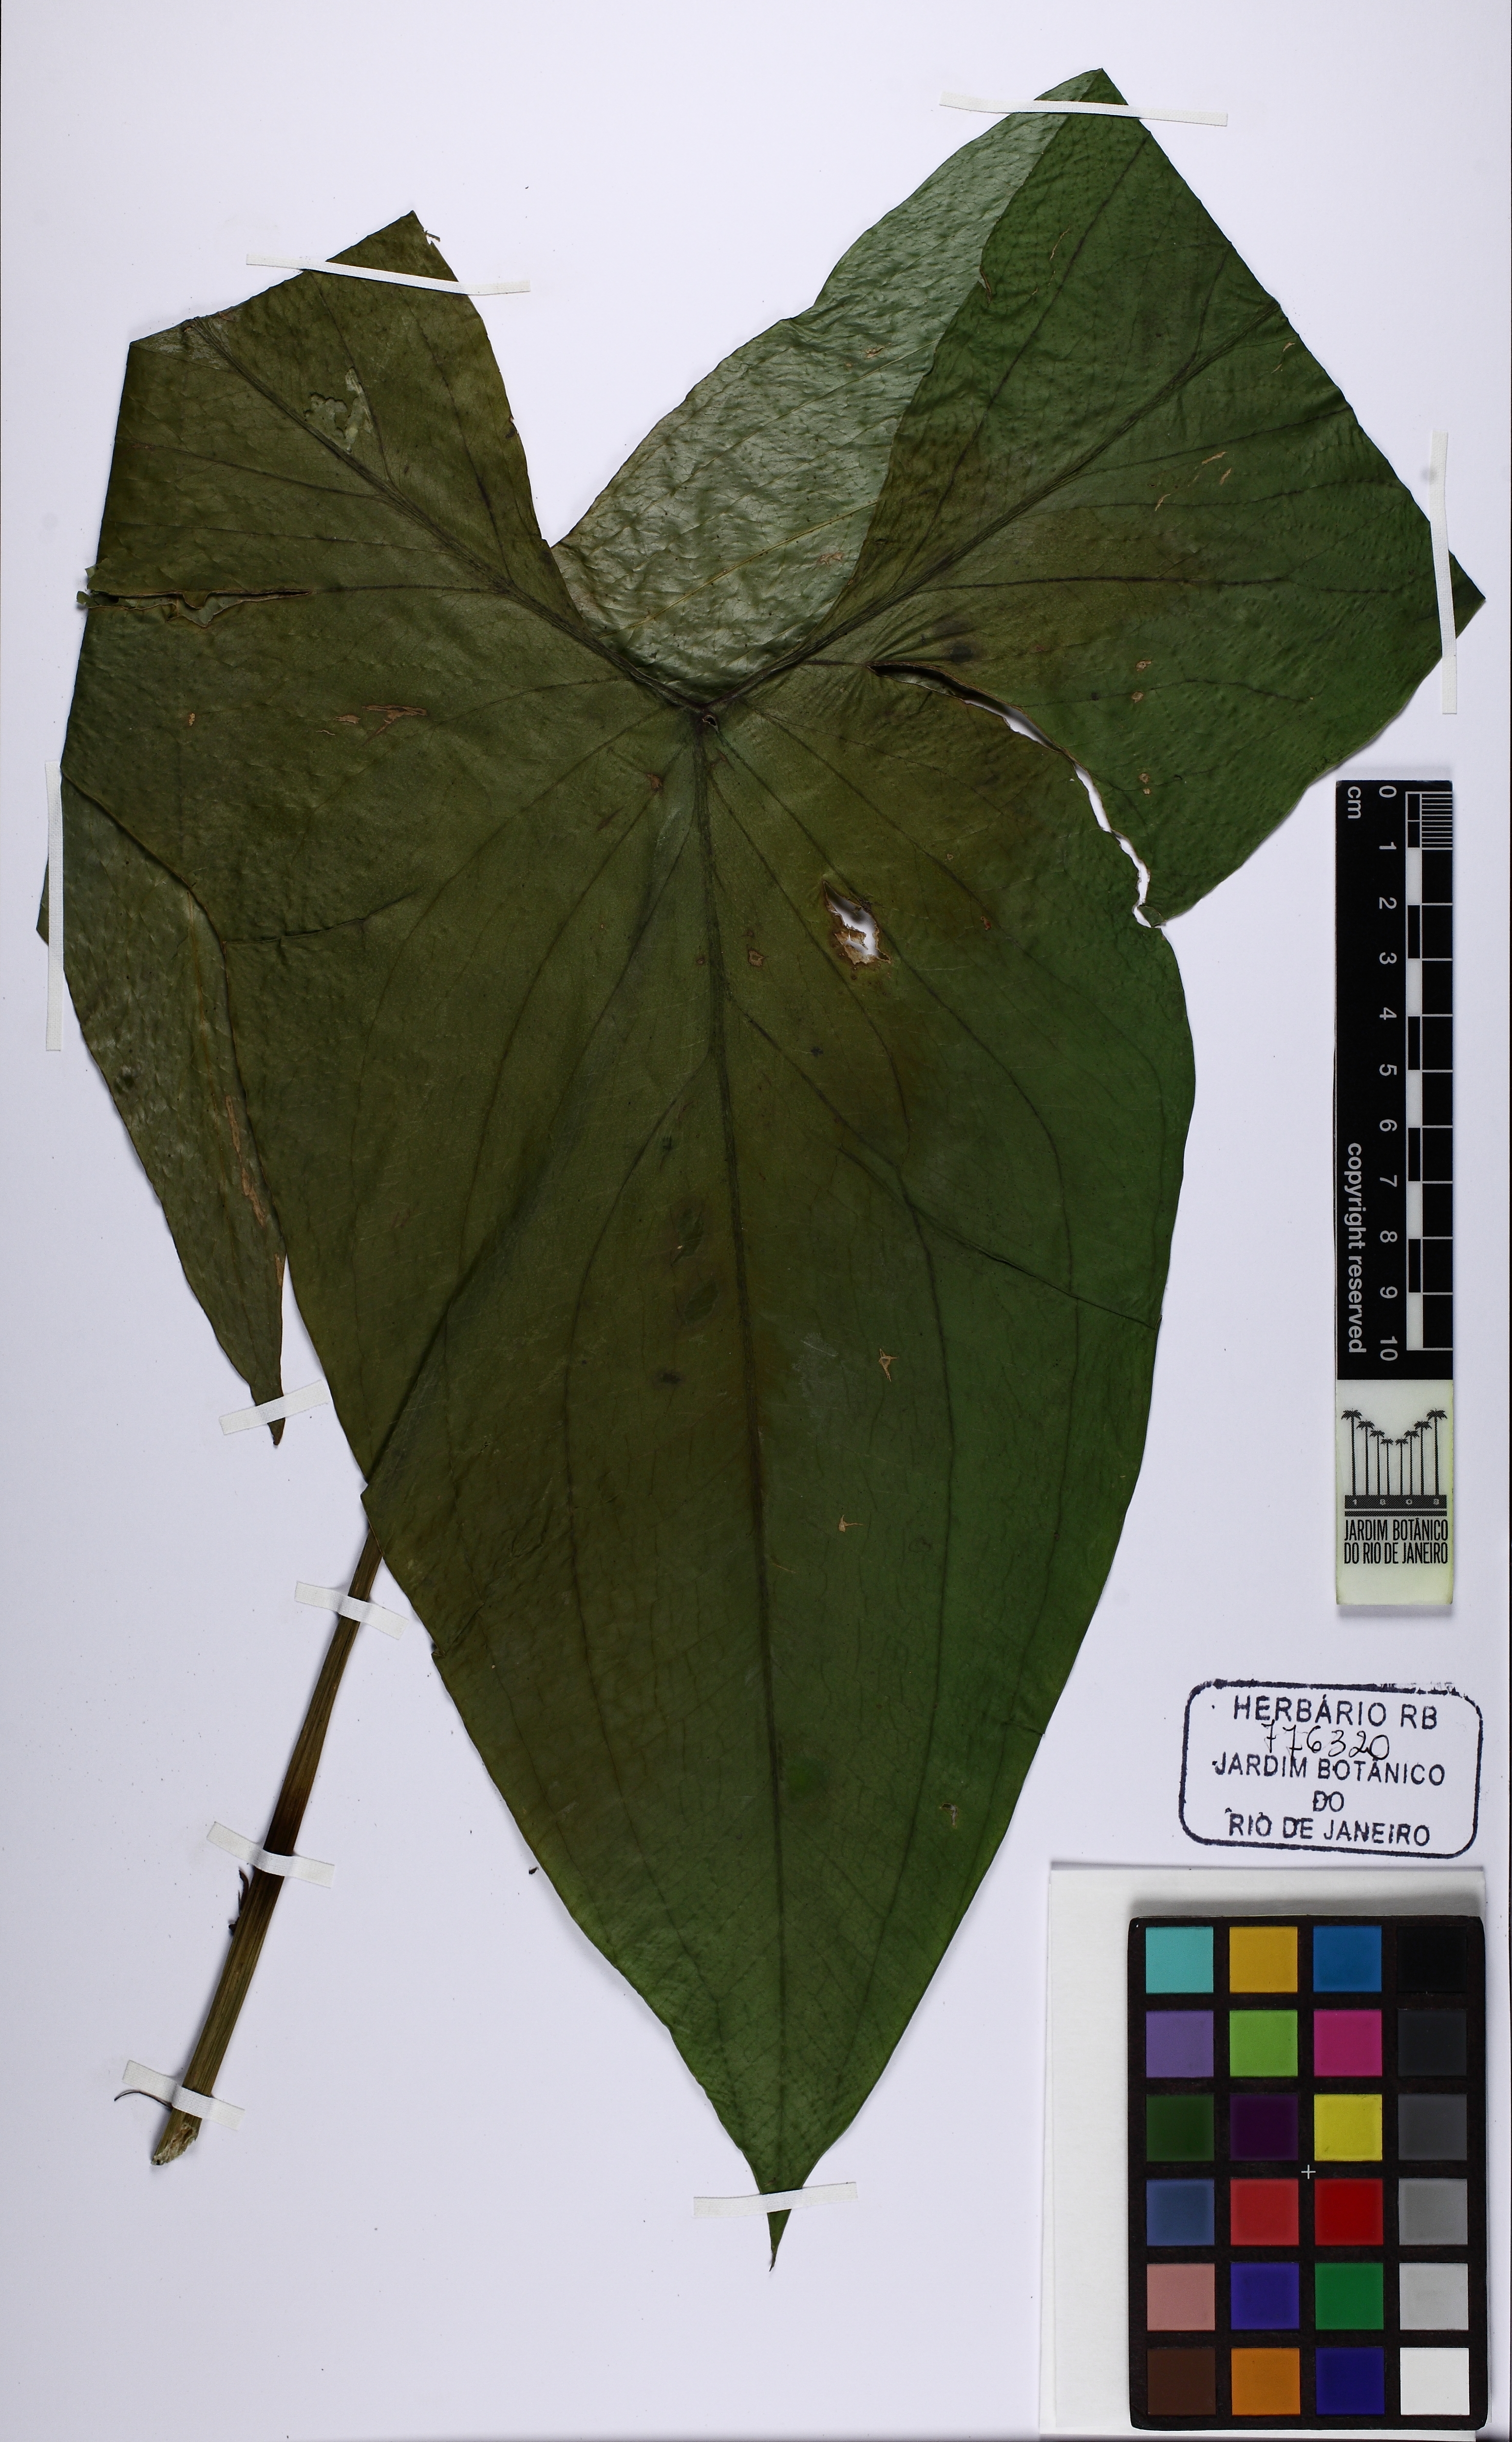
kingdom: Plantae
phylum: Tracheophyta
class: Liliopsida
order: Alismatales
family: Araceae
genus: Urospatha
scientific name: Urospatha sagittifolia
